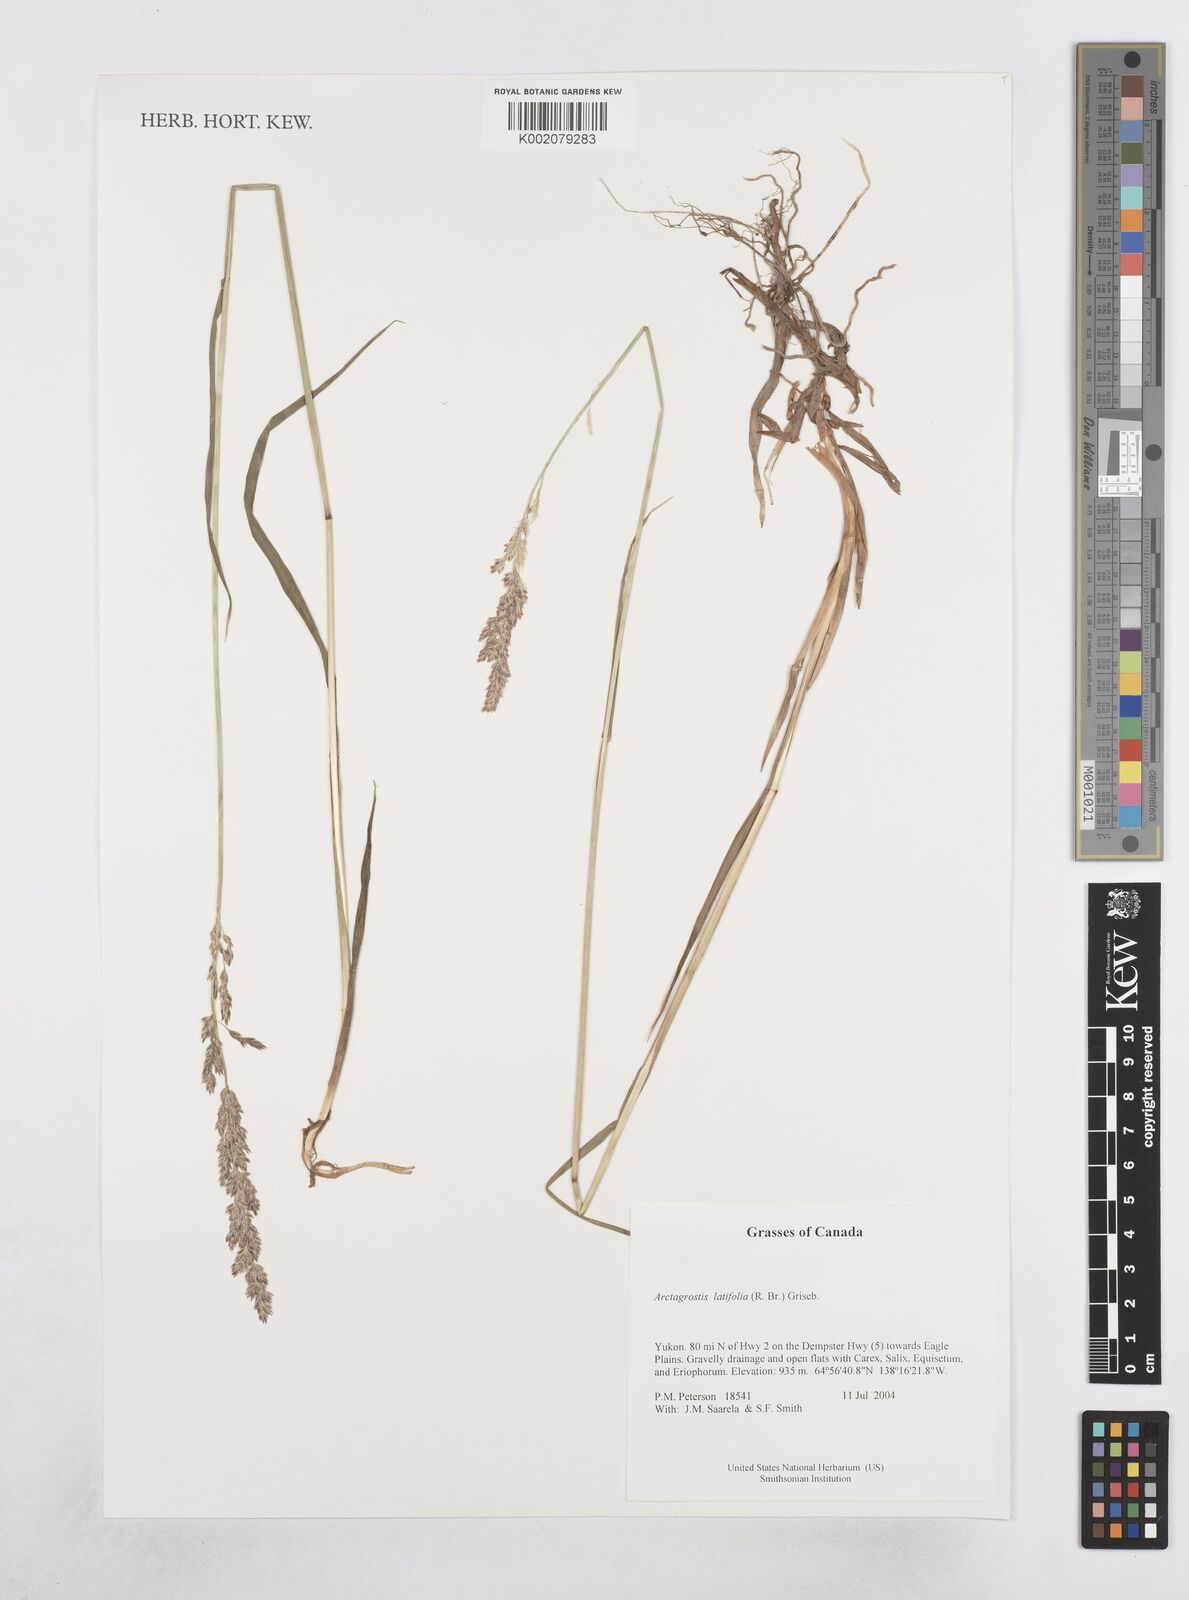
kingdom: Plantae
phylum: Tracheophyta
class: Liliopsida
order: Poales
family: Poaceae
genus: Arctagrostis
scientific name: Arctagrostis latifolia
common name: Arctic grass
